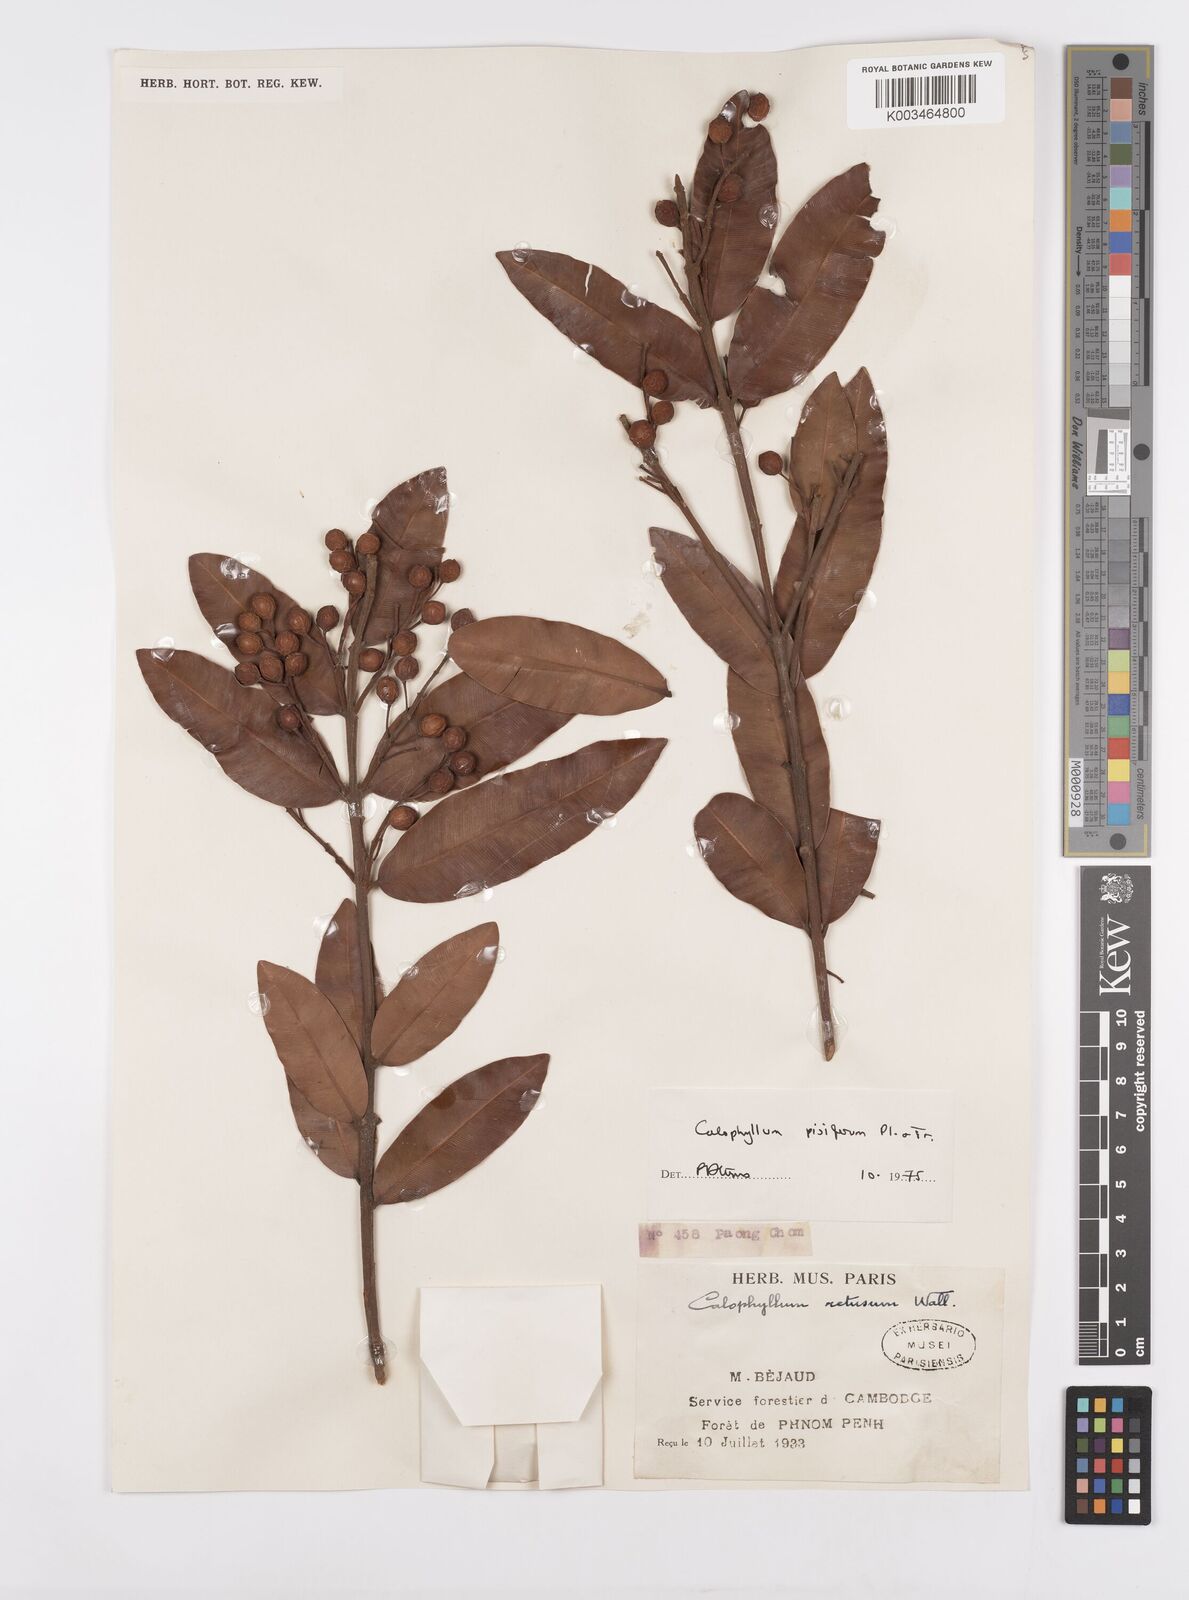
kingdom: Plantae
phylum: Tracheophyta
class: Magnoliopsida
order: Malpighiales
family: Calophyllaceae
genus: Calophyllum
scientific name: Calophyllum pisiferum
